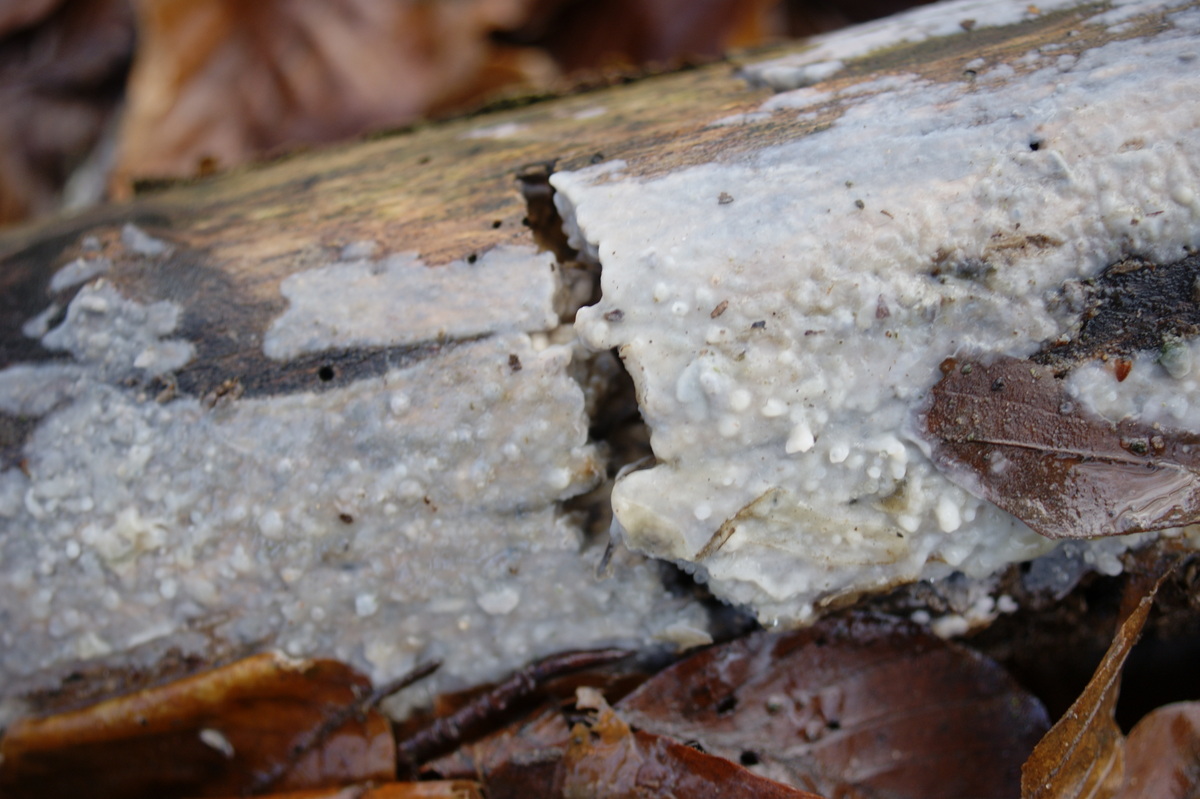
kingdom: Fungi
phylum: Basidiomycota
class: Agaricomycetes
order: Agaricales
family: Radulomycetaceae
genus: Radulomyces
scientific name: Radulomyces confluens
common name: glat naftalinskind
